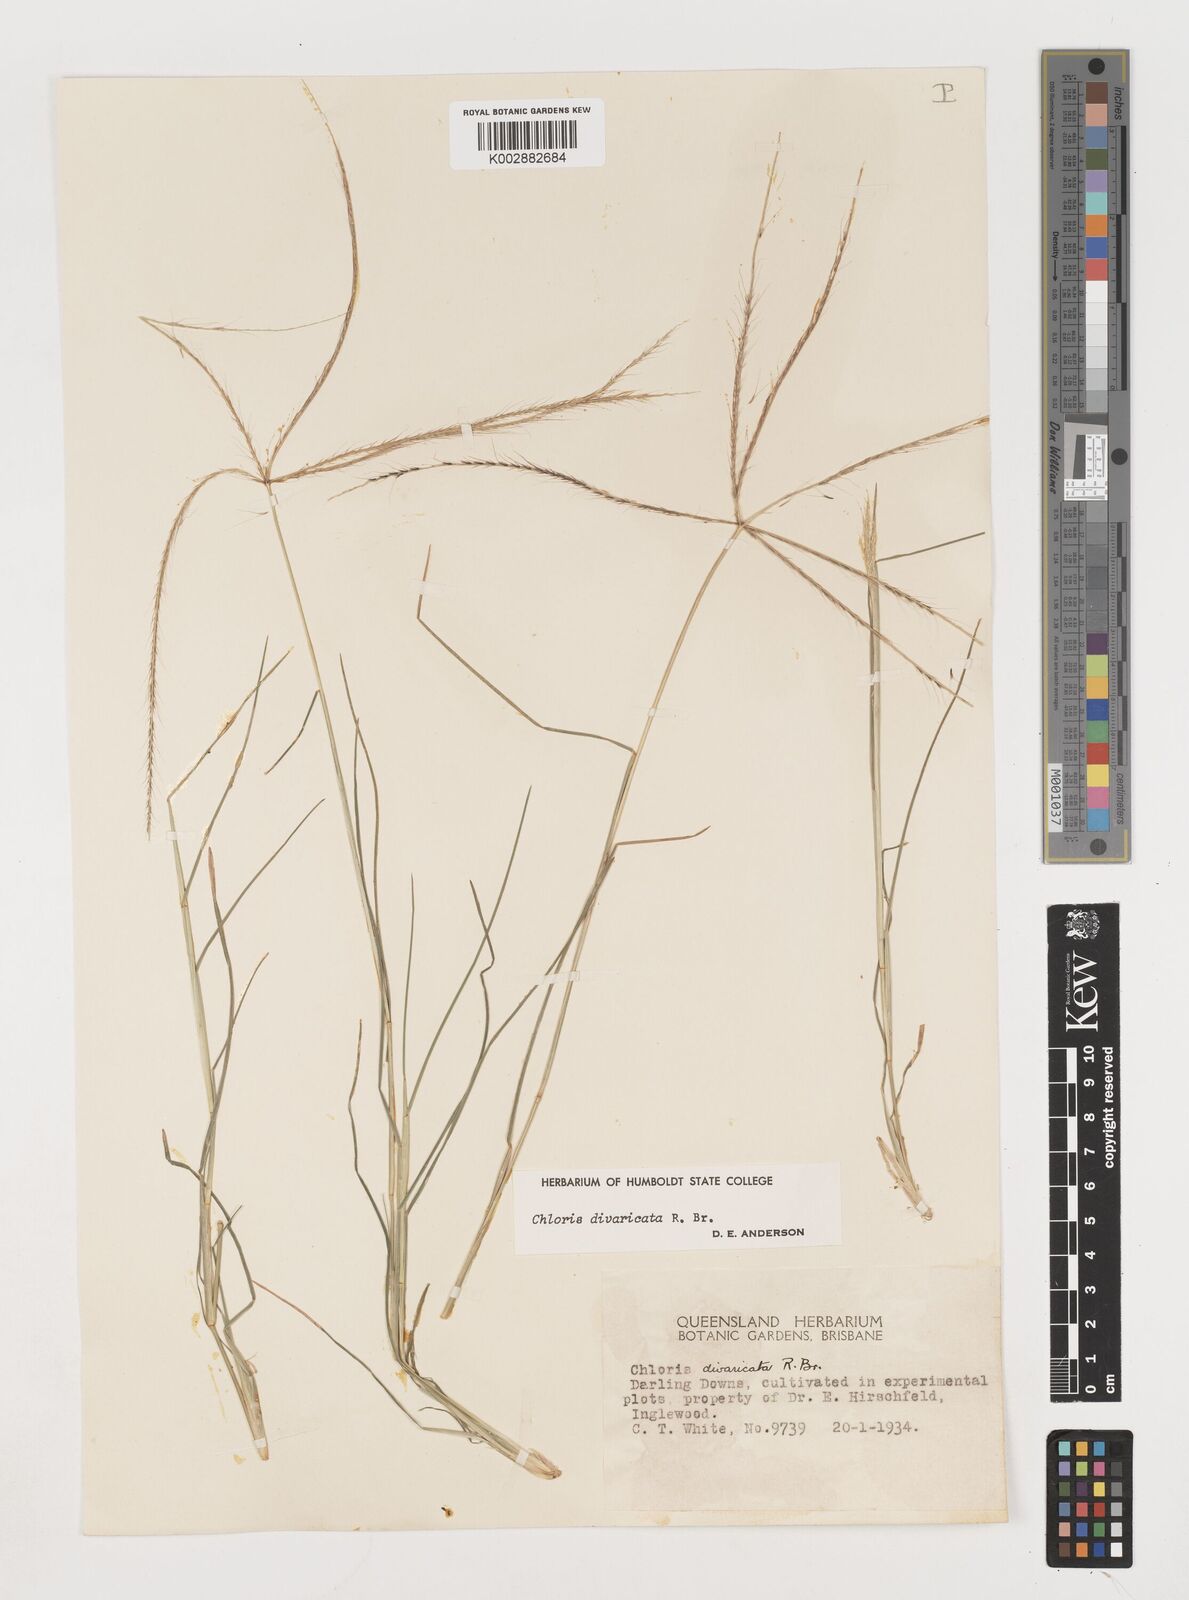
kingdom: Plantae
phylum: Tracheophyta
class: Liliopsida
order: Poales
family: Poaceae
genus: Chloris
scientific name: Chloris divaricata
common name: Spreading windmill grass
